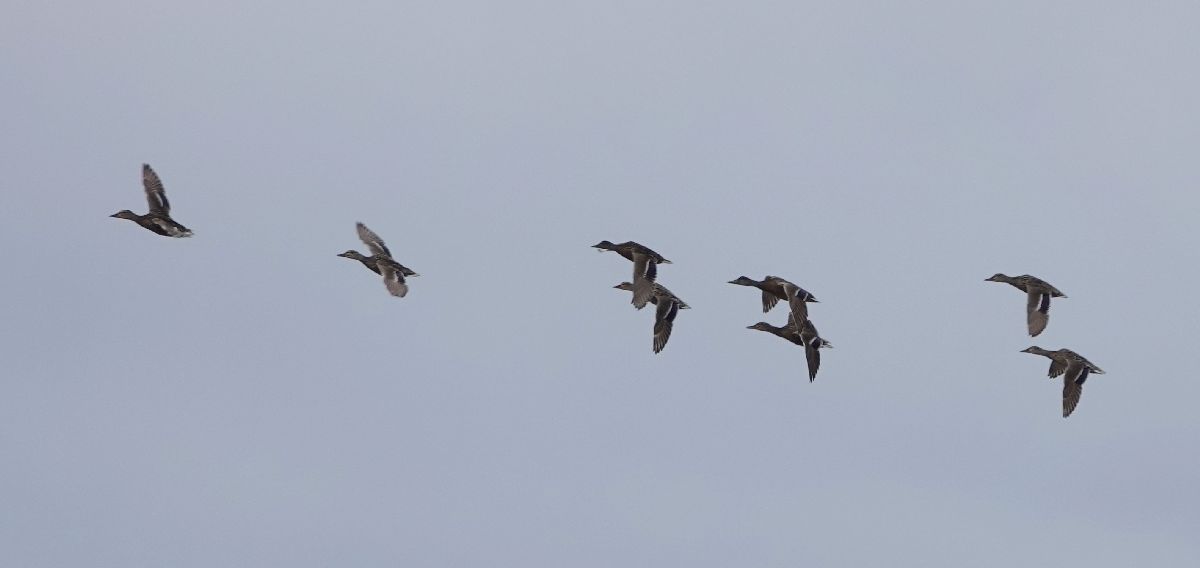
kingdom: Animalia
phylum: Chordata
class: Aves
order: Anseriformes
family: Anatidae
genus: Anas
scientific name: Anas platyrhynchos
